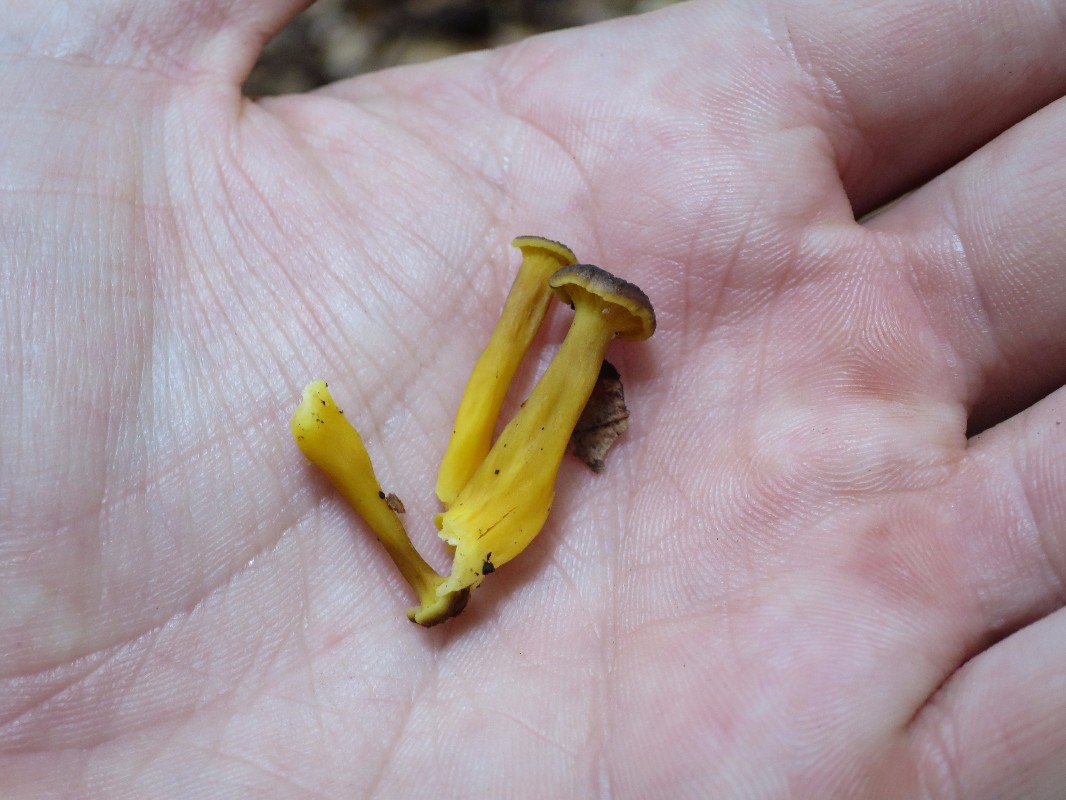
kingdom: Fungi
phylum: Basidiomycota
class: Agaricomycetes
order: Cantharellales
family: Hydnaceae
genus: Craterellus
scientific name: Craterellus tubaeformis
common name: tragt-kantarel
